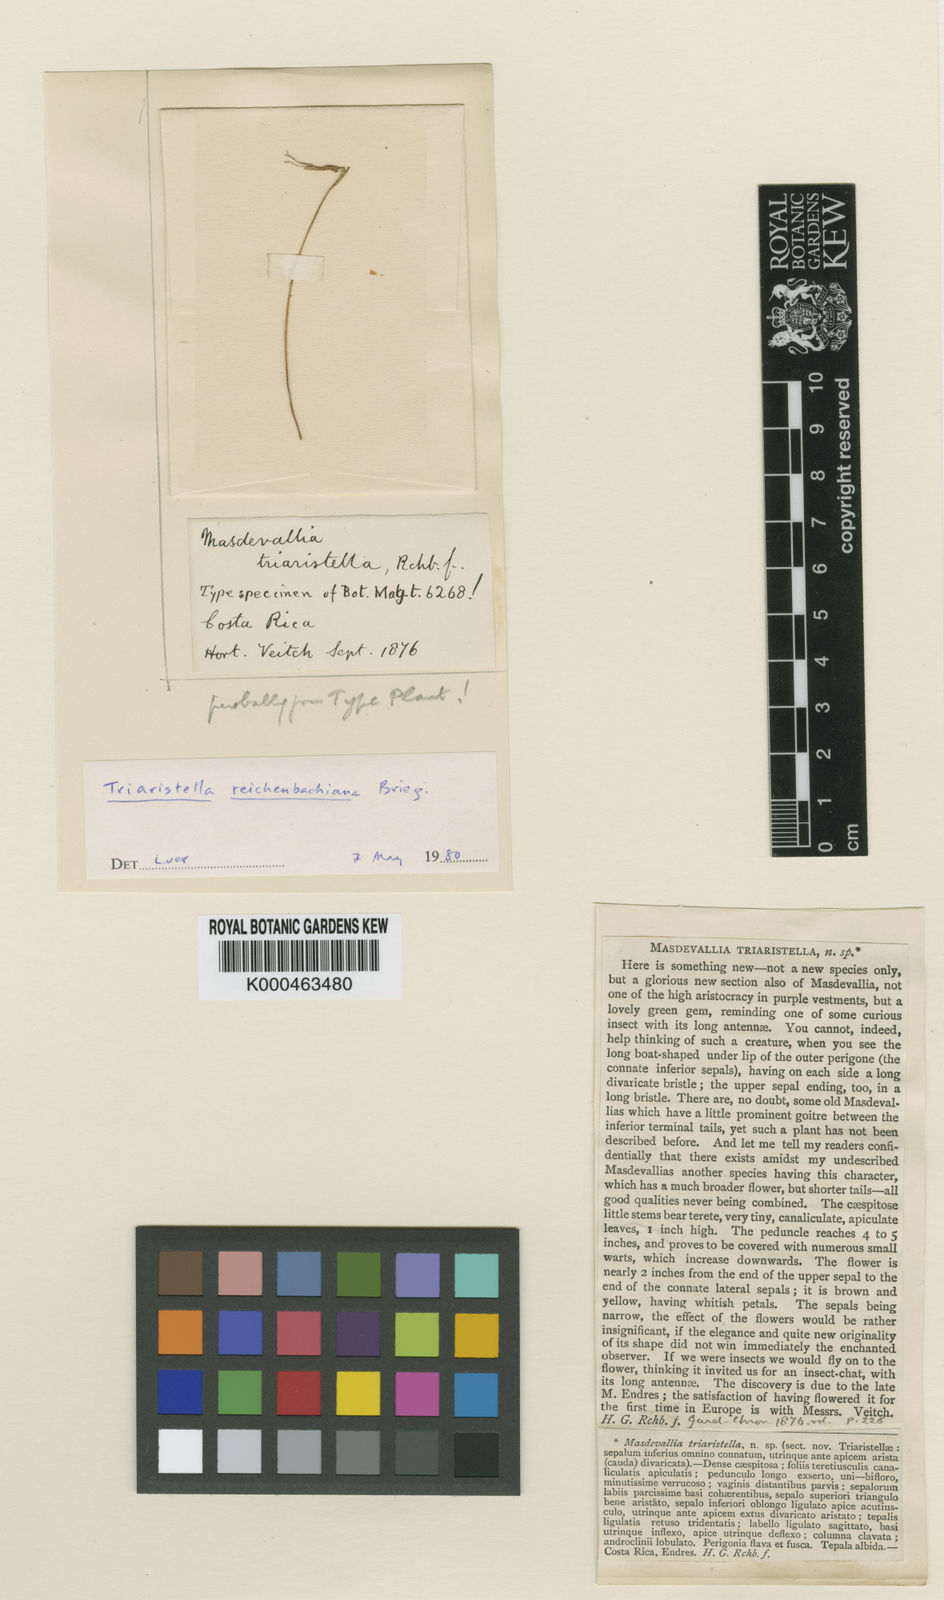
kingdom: Plantae
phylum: Tracheophyta
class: Liliopsida
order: Asparagales
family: Orchidaceae
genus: Trisetella
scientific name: Trisetella triaristella
